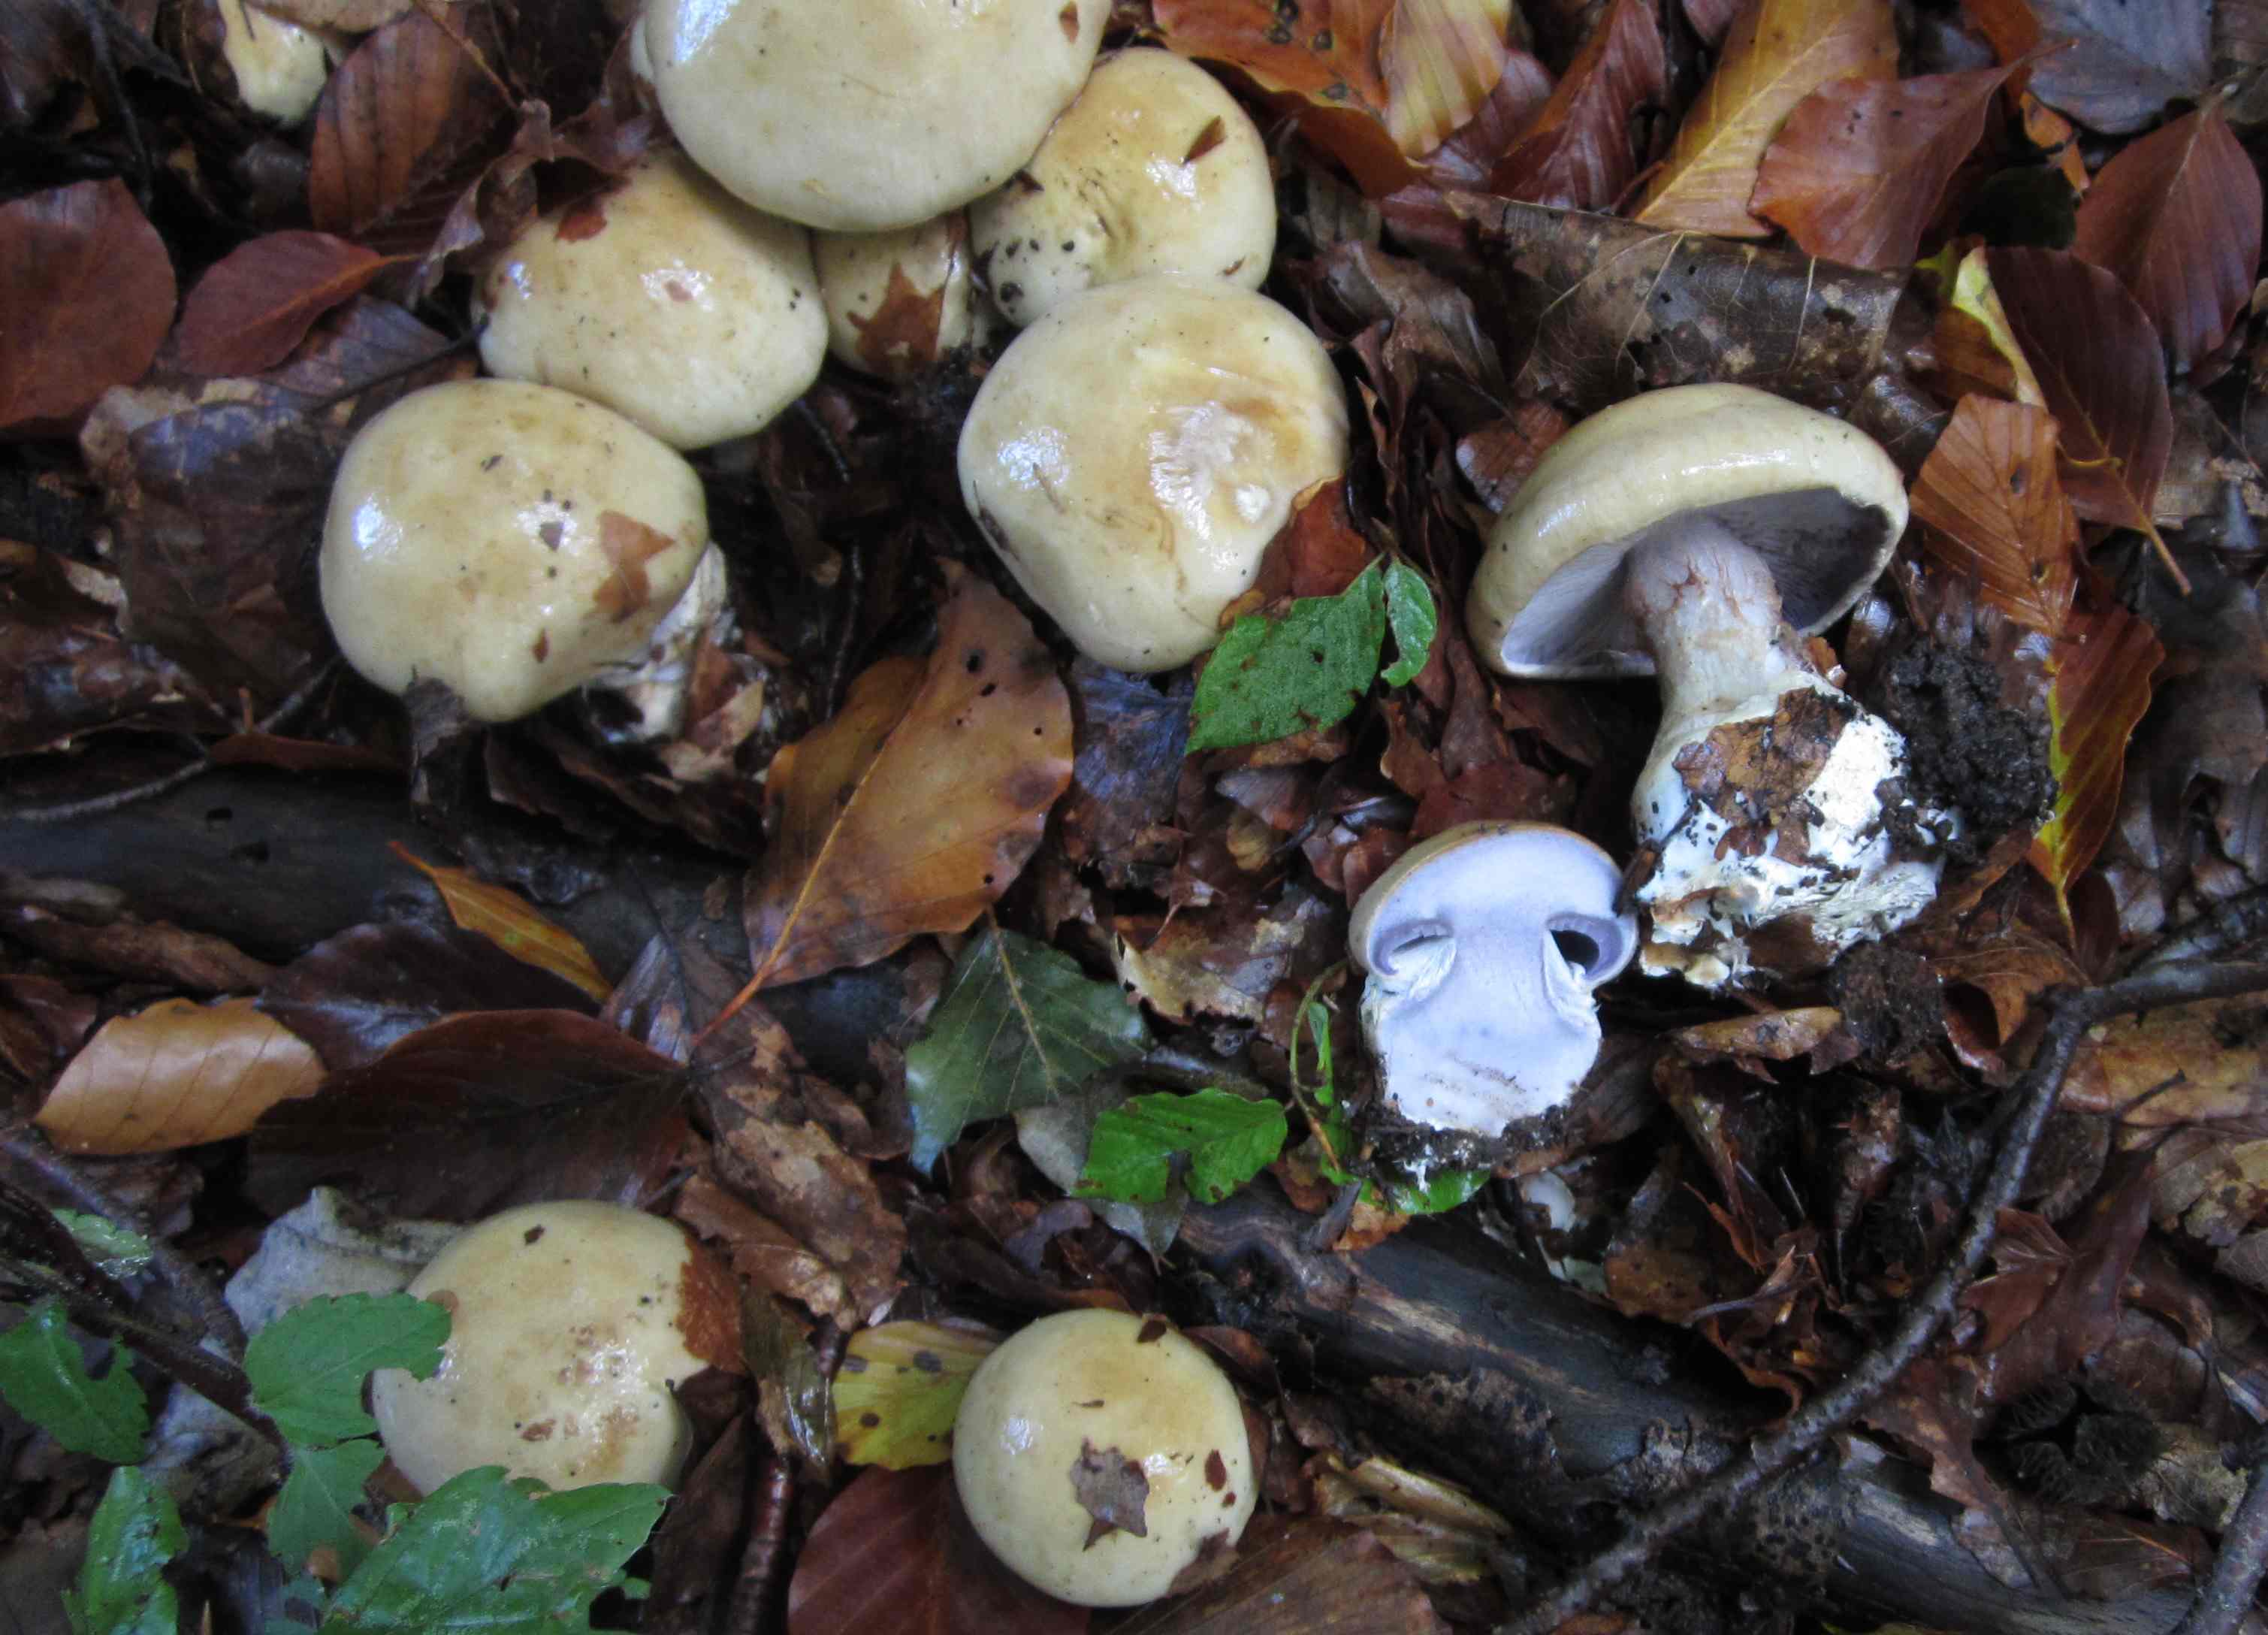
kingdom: Fungi
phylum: Basidiomycota
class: Agaricomycetes
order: Agaricales
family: Cortinariaceae
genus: Cortinarius
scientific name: Cortinarius anserinus
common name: bøge-slørhat
